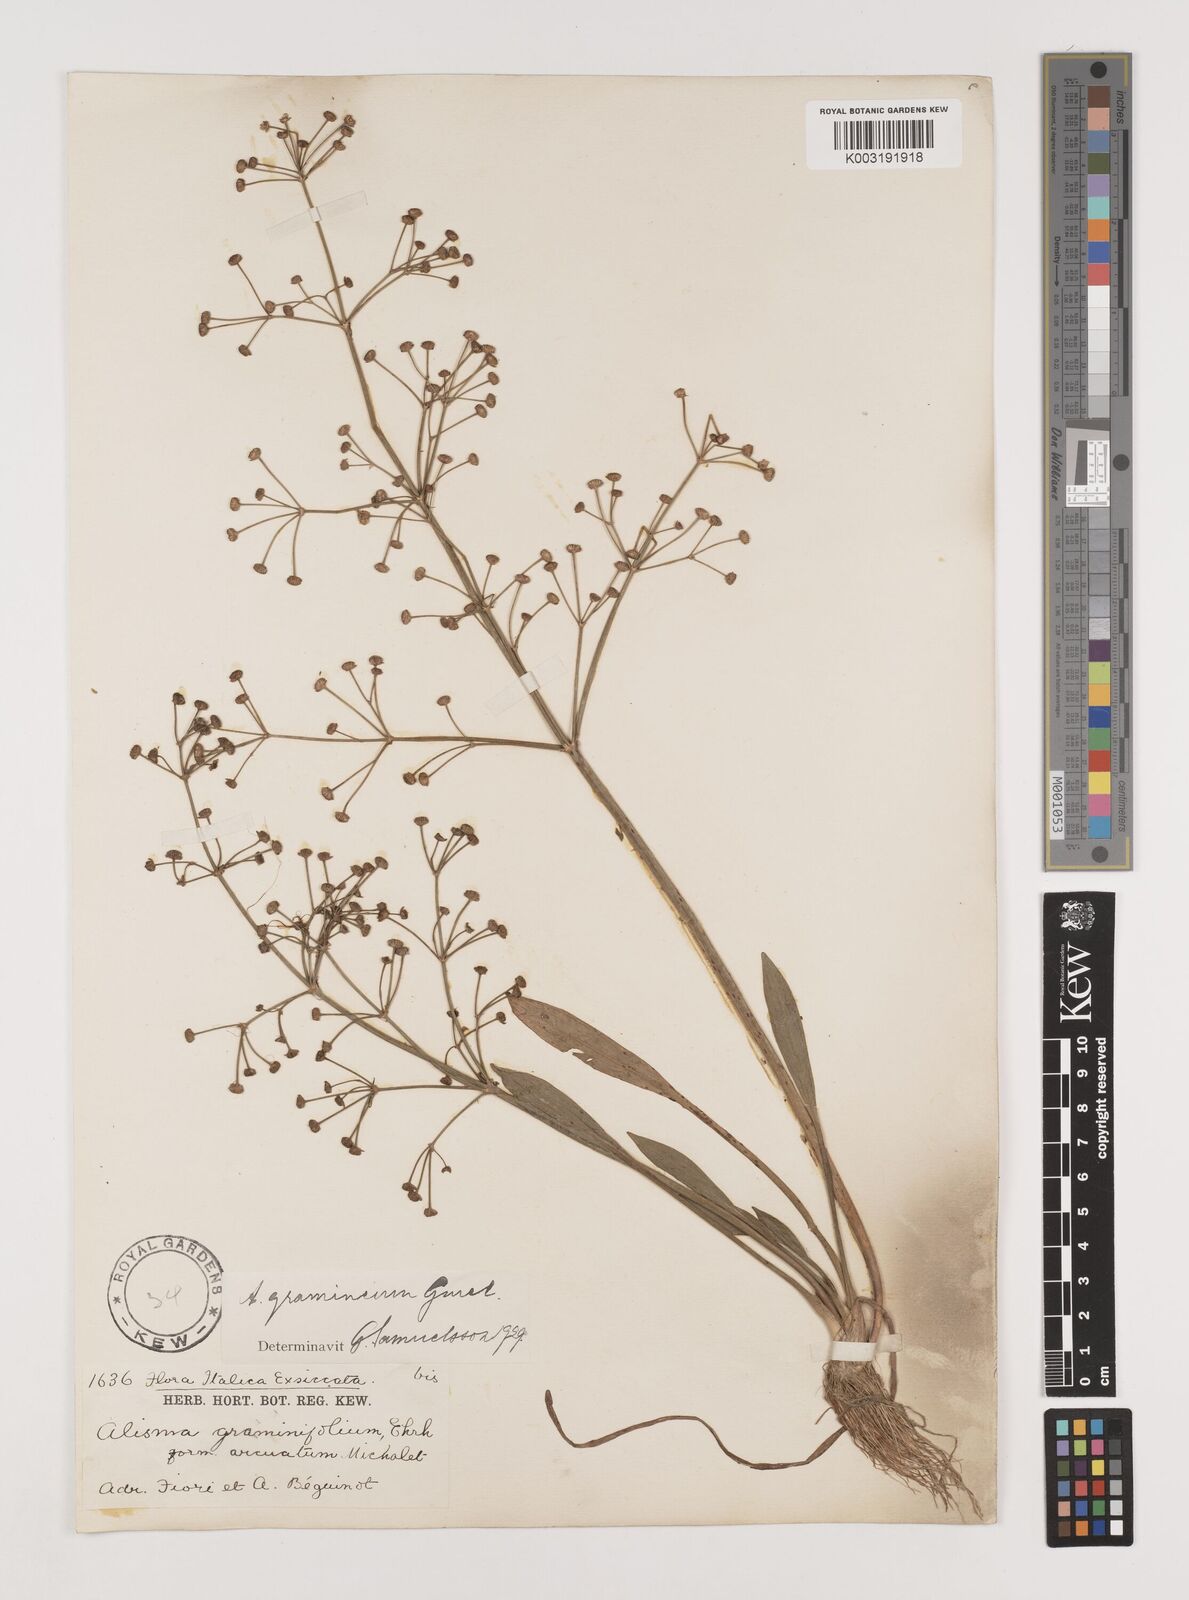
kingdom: Plantae
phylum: Tracheophyta
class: Liliopsida
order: Alismatales
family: Alismataceae
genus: Alisma
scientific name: Alisma gramineum
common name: Ribbon-leaved water-plantain
